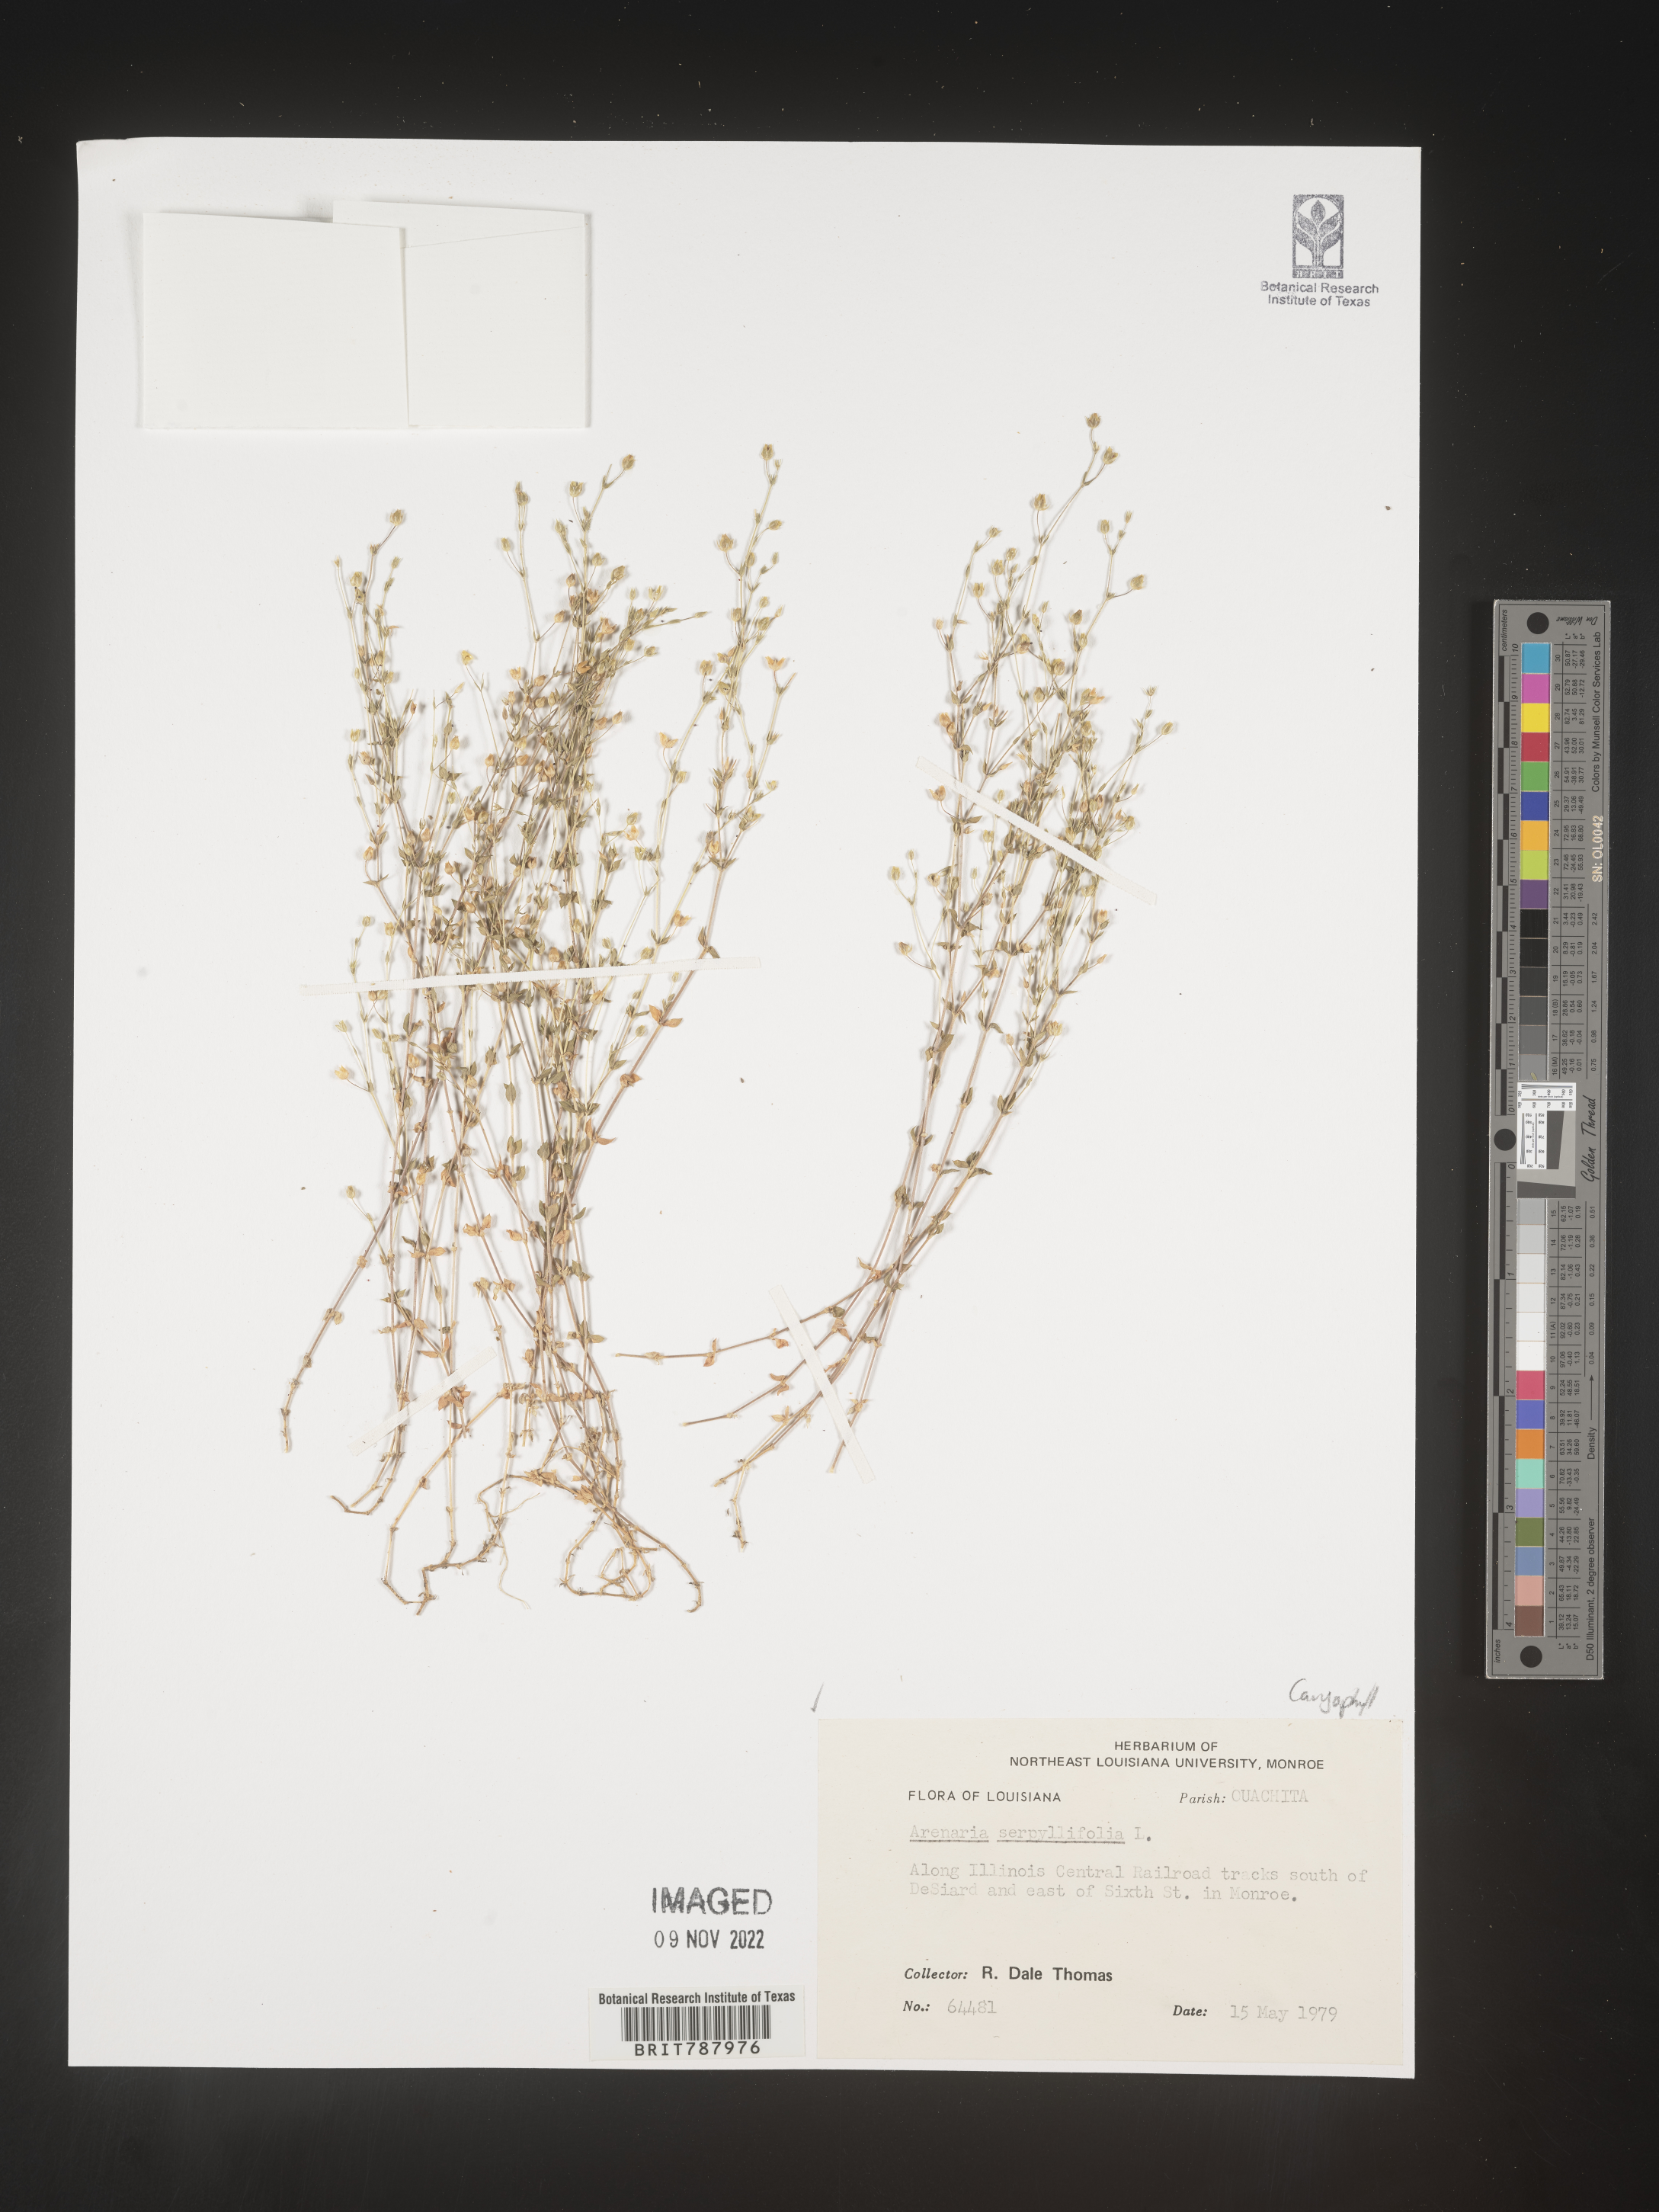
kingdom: Plantae
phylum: Tracheophyta
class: Magnoliopsida
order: Caryophyllales
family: Caryophyllaceae
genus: Arenaria
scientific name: Arenaria serpyllifolia
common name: Thyme-leaved sandwort
